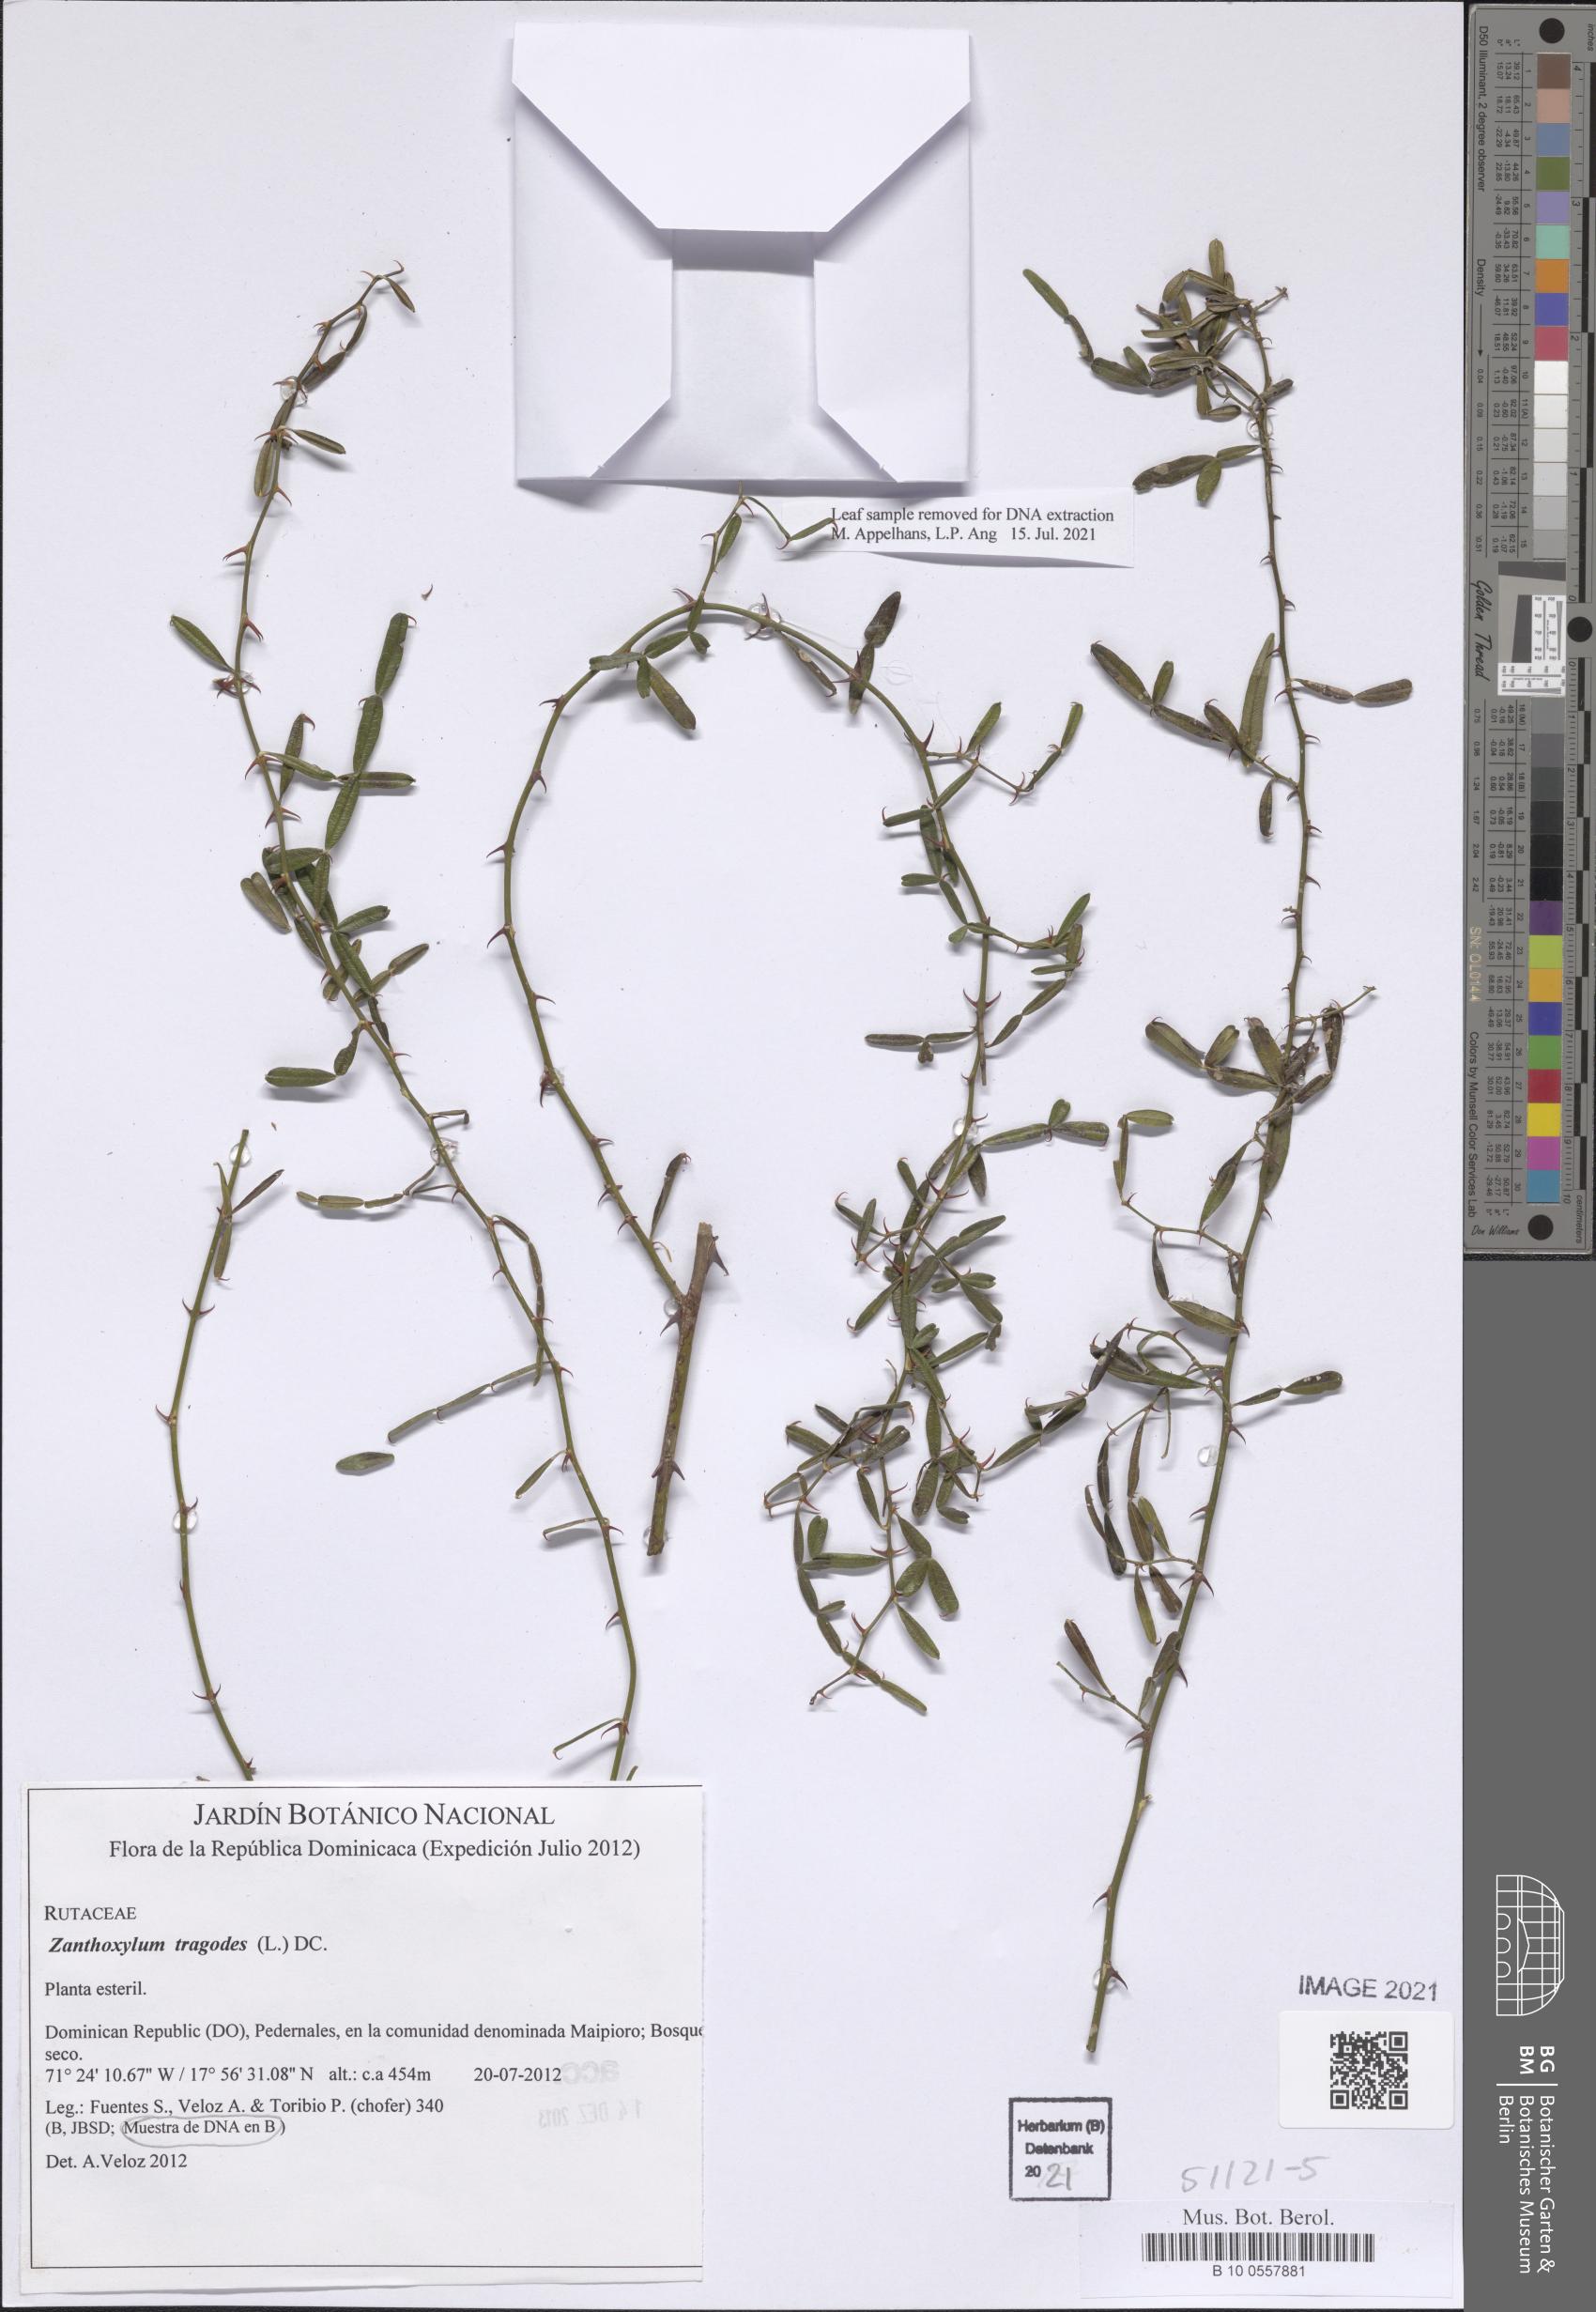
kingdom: Plantae
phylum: Tracheophyta
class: Magnoliopsida
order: Sapindales
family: Rutaceae
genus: Zanthoxylum
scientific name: Zanthoxylum tragodes
